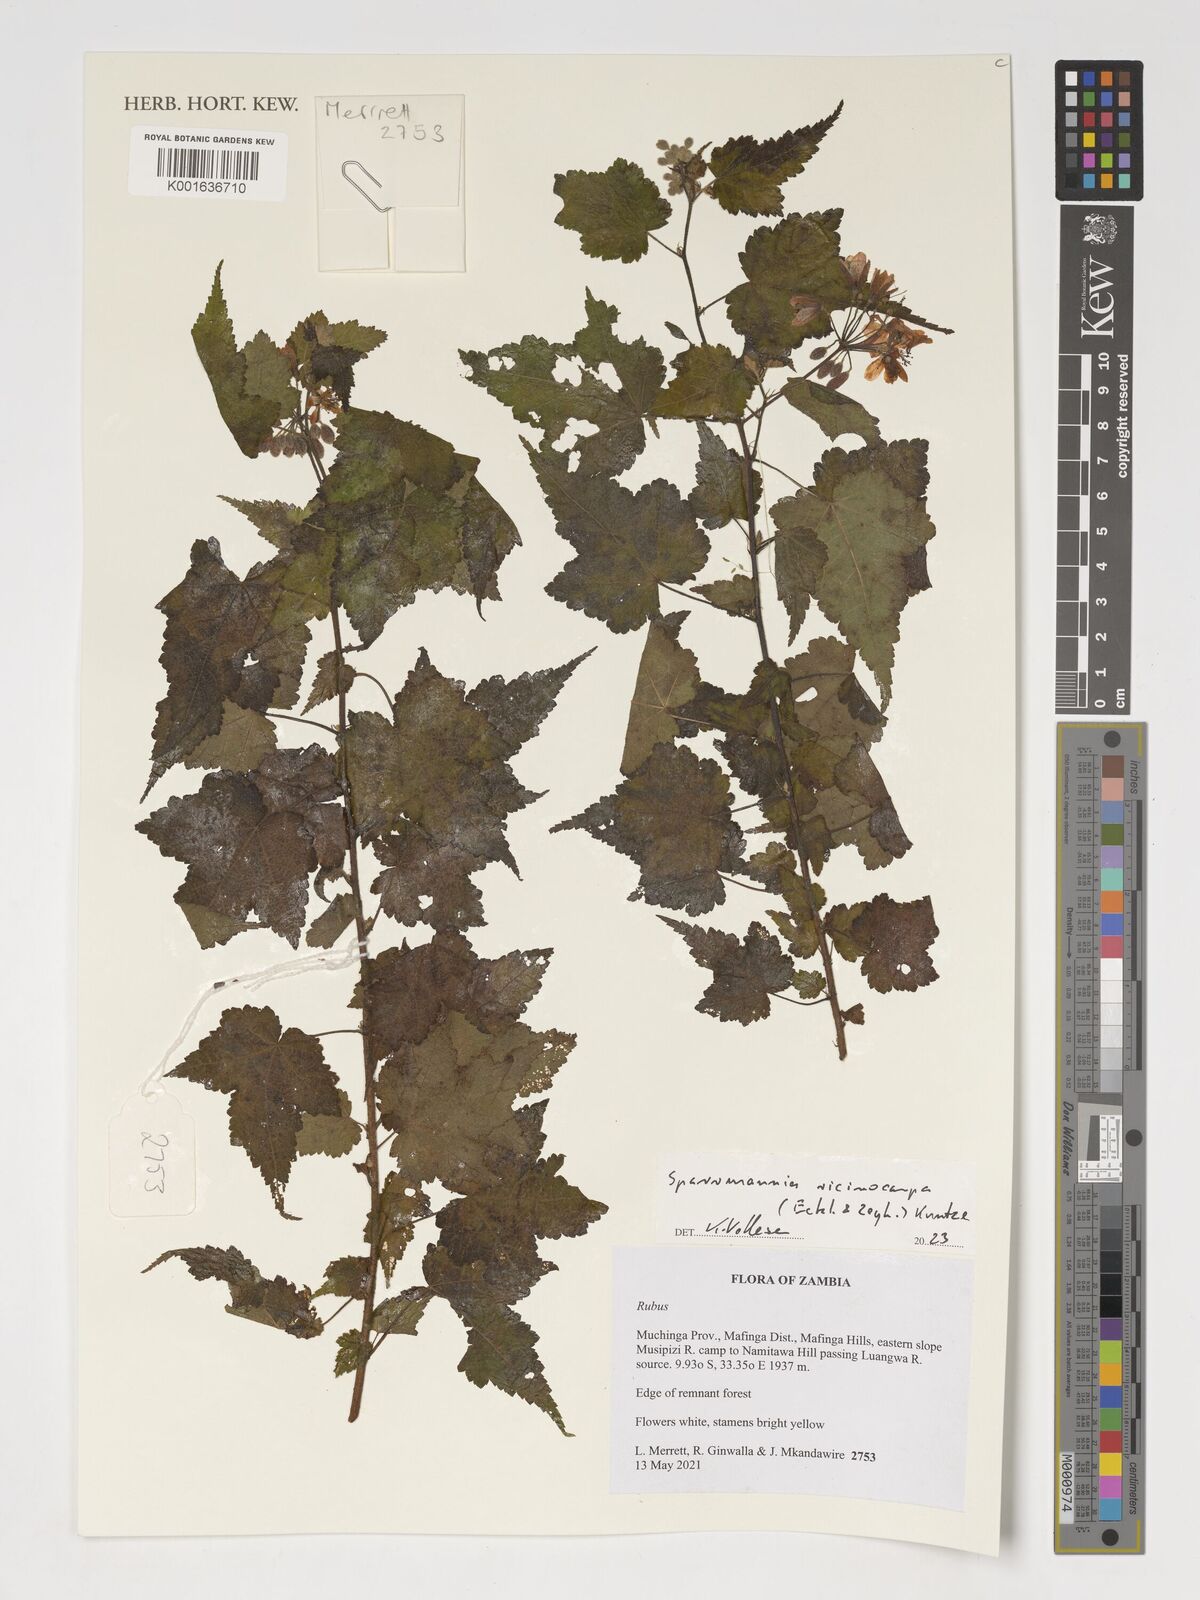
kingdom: Plantae
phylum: Tracheophyta
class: Magnoliopsida
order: Malvales
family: Malvaceae
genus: Sparrmannia
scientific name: Sparrmannia ricinocarpa
